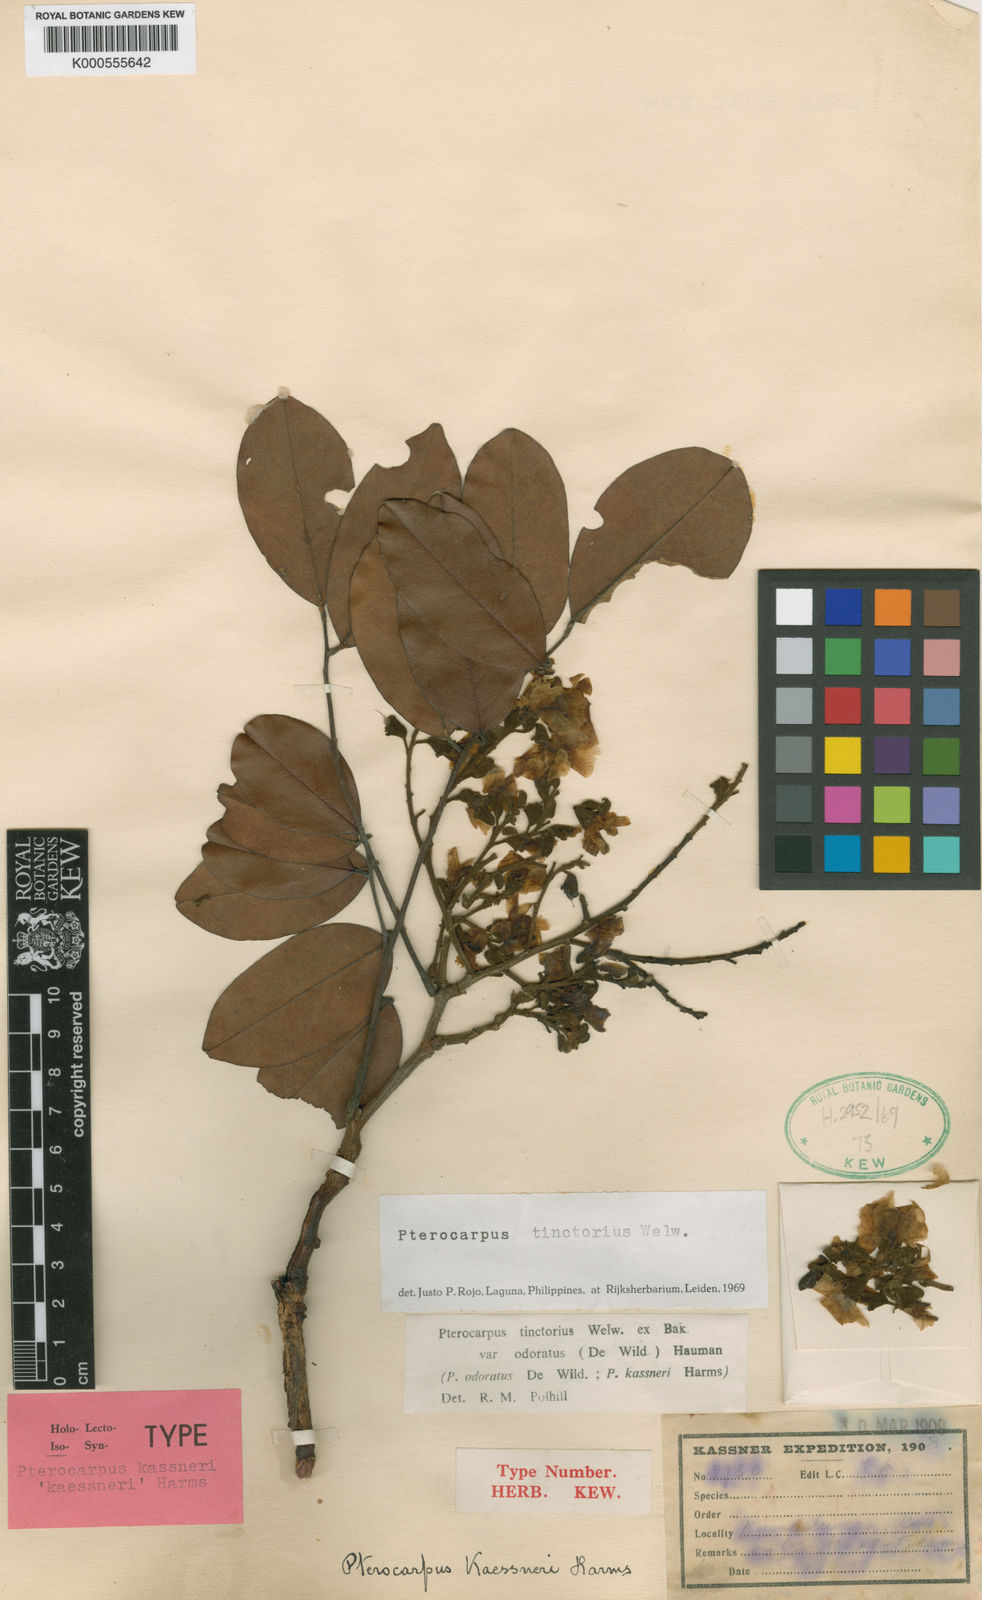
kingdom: Plantae
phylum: Tracheophyta
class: Magnoliopsida
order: Fabales
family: Fabaceae
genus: Pterocarpus
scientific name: Pterocarpus tinctorius
